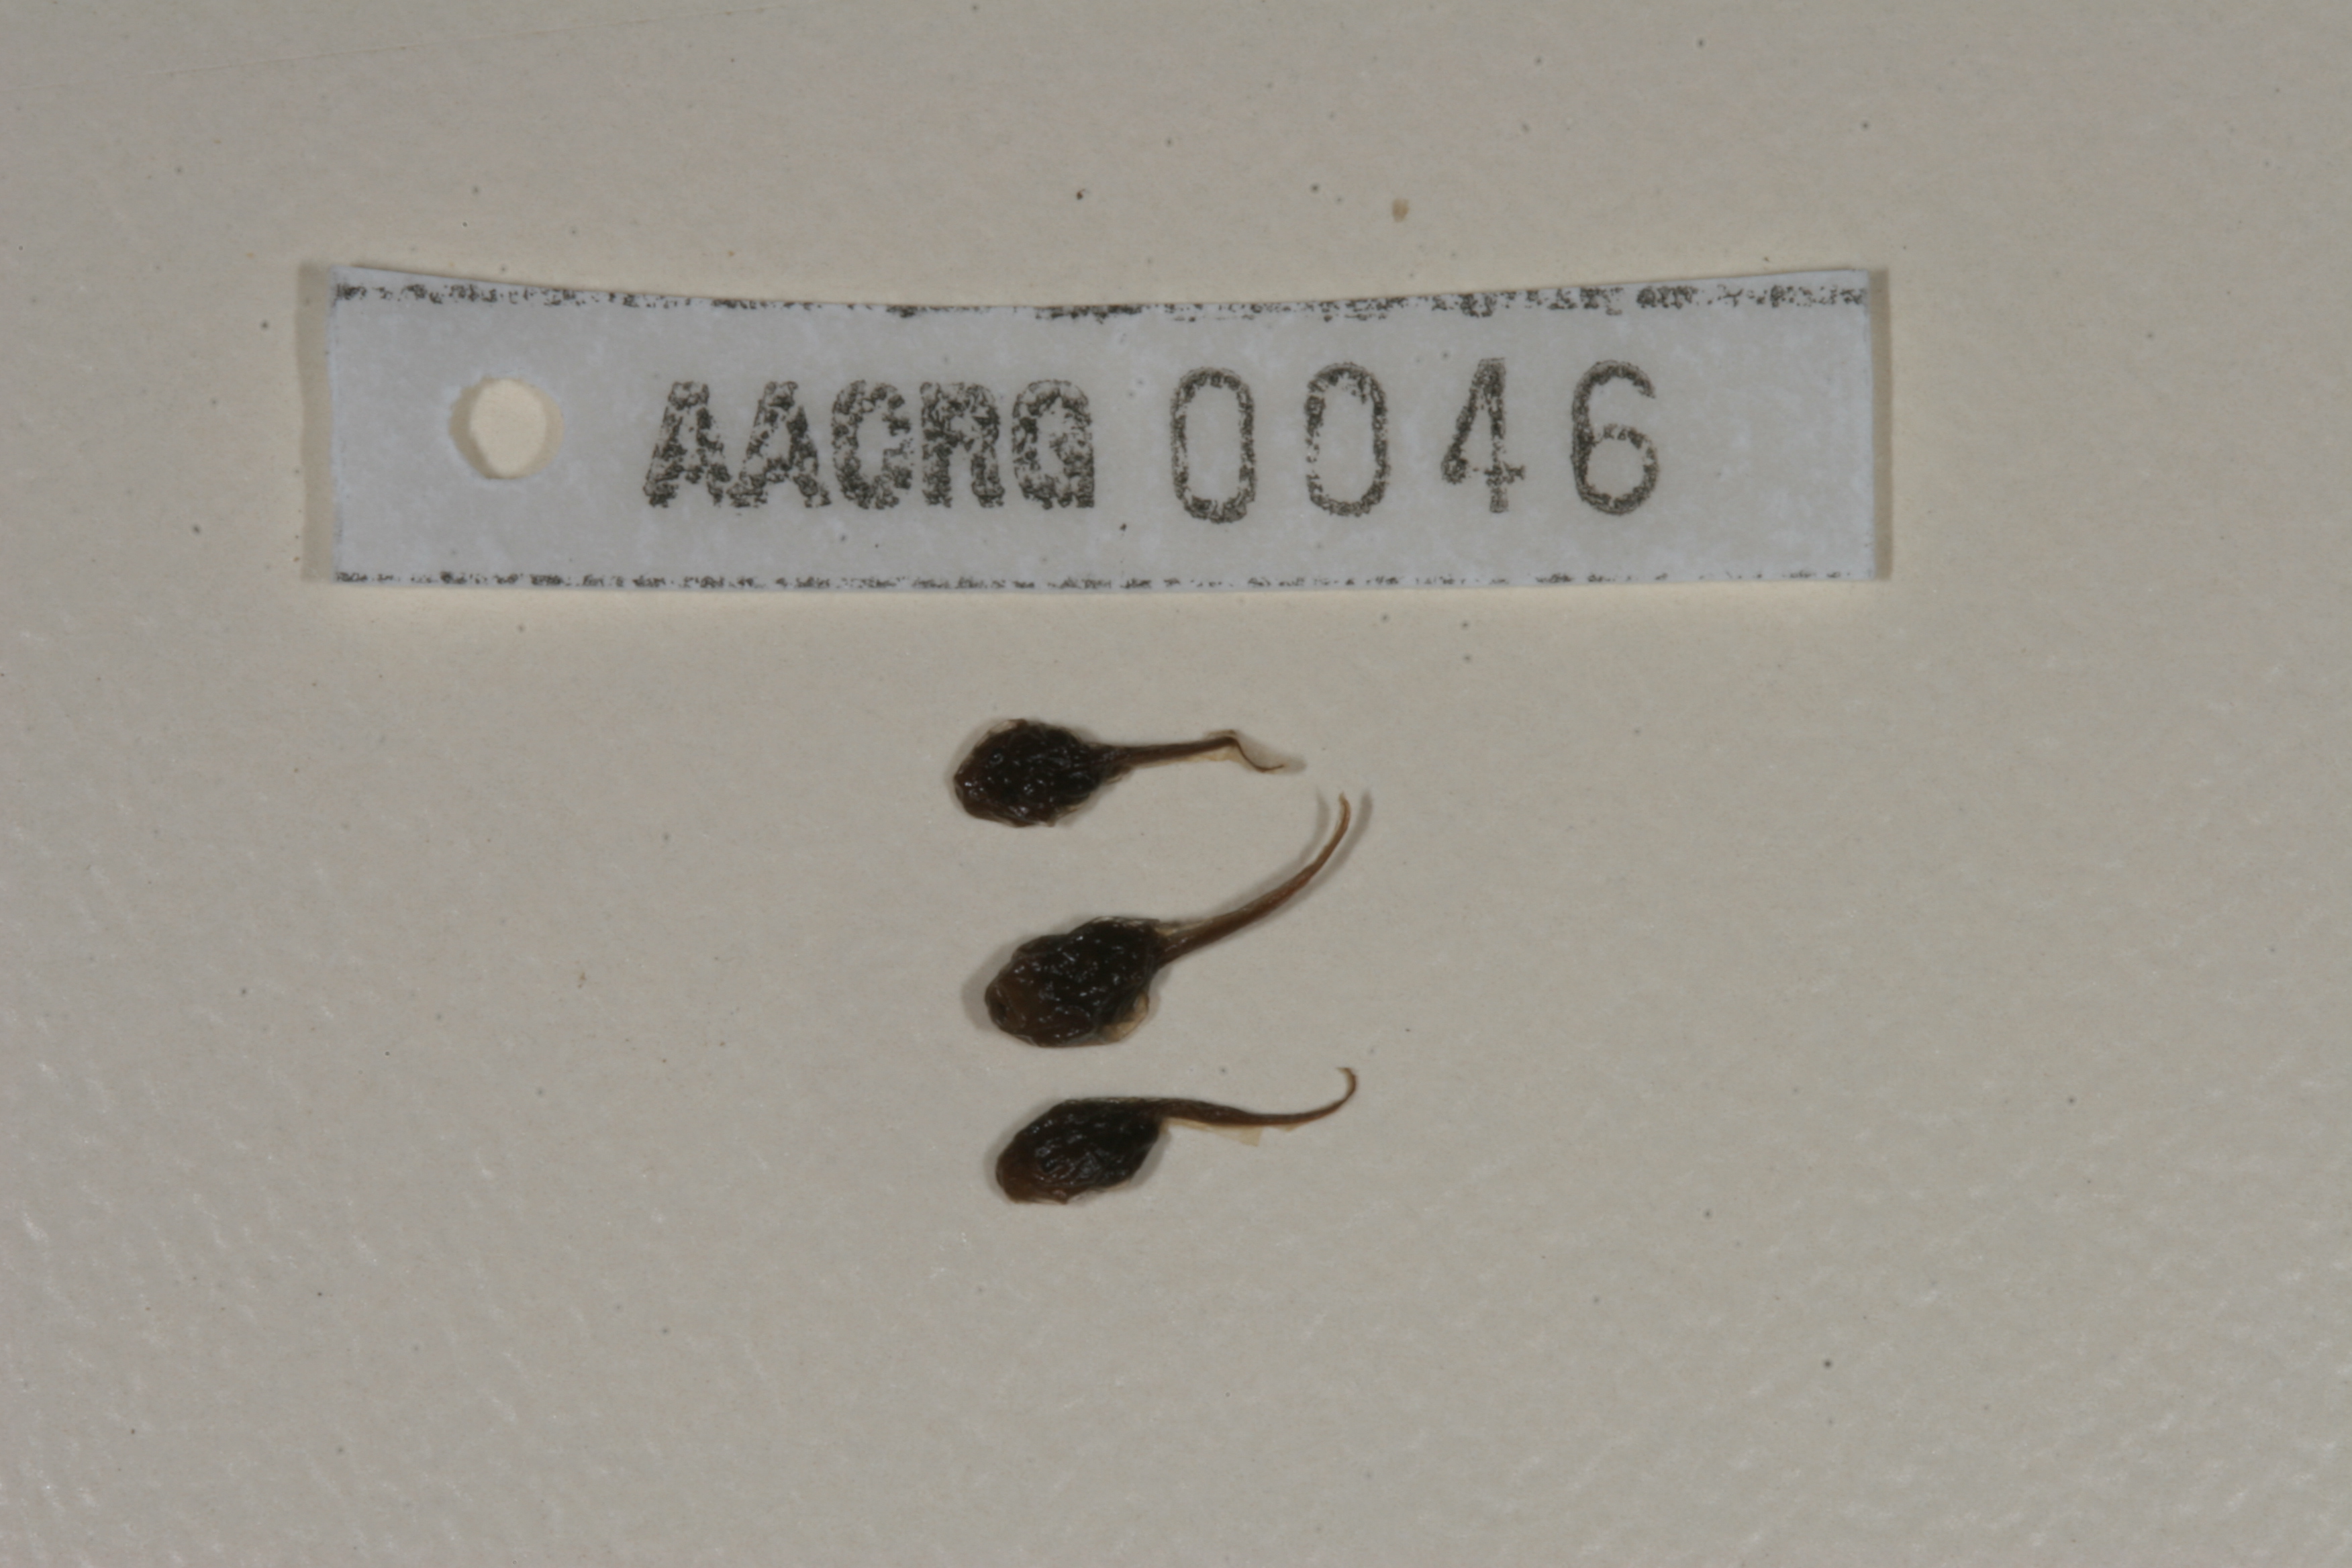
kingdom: Animalia
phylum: Chordata
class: Amphibia
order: Anura
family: Bufonidae
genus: Sclerophrys
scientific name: Sclerophrys garmani
